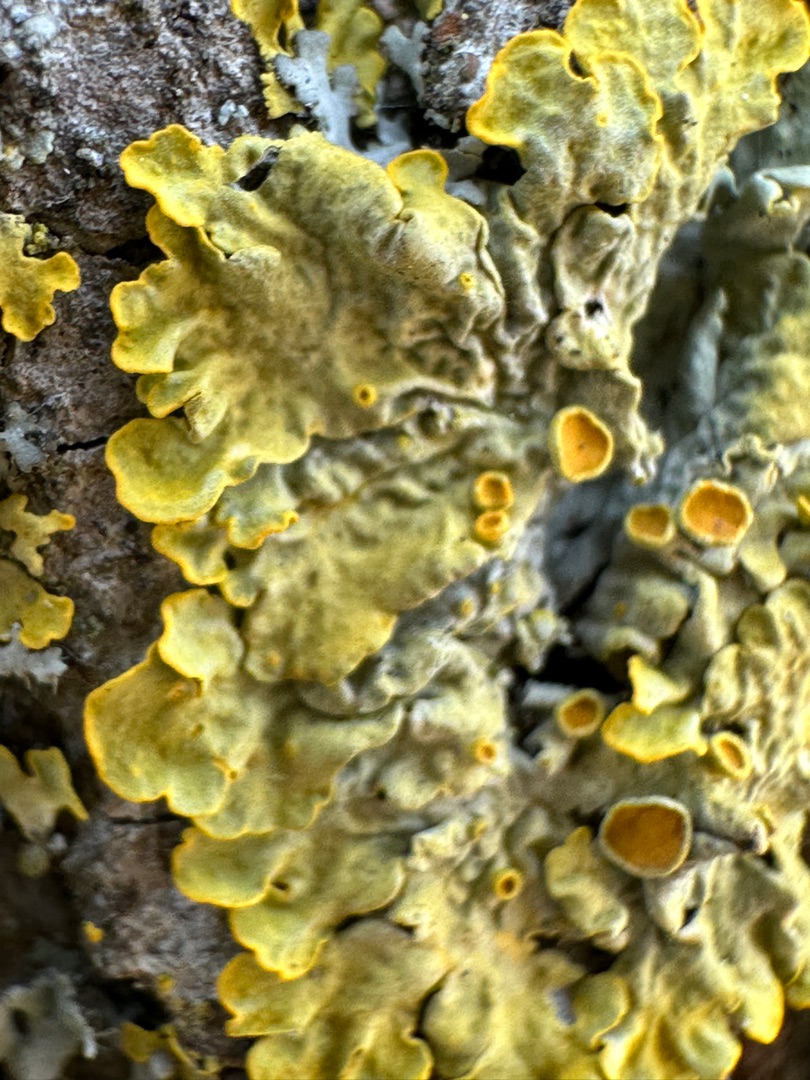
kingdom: Fungi
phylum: Ascomycota
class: Lecanoromycetes
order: Teloschistales
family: Teloschistaceae
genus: Xanthoria
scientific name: Xanthoria parietina
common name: Almindelig væggelav
